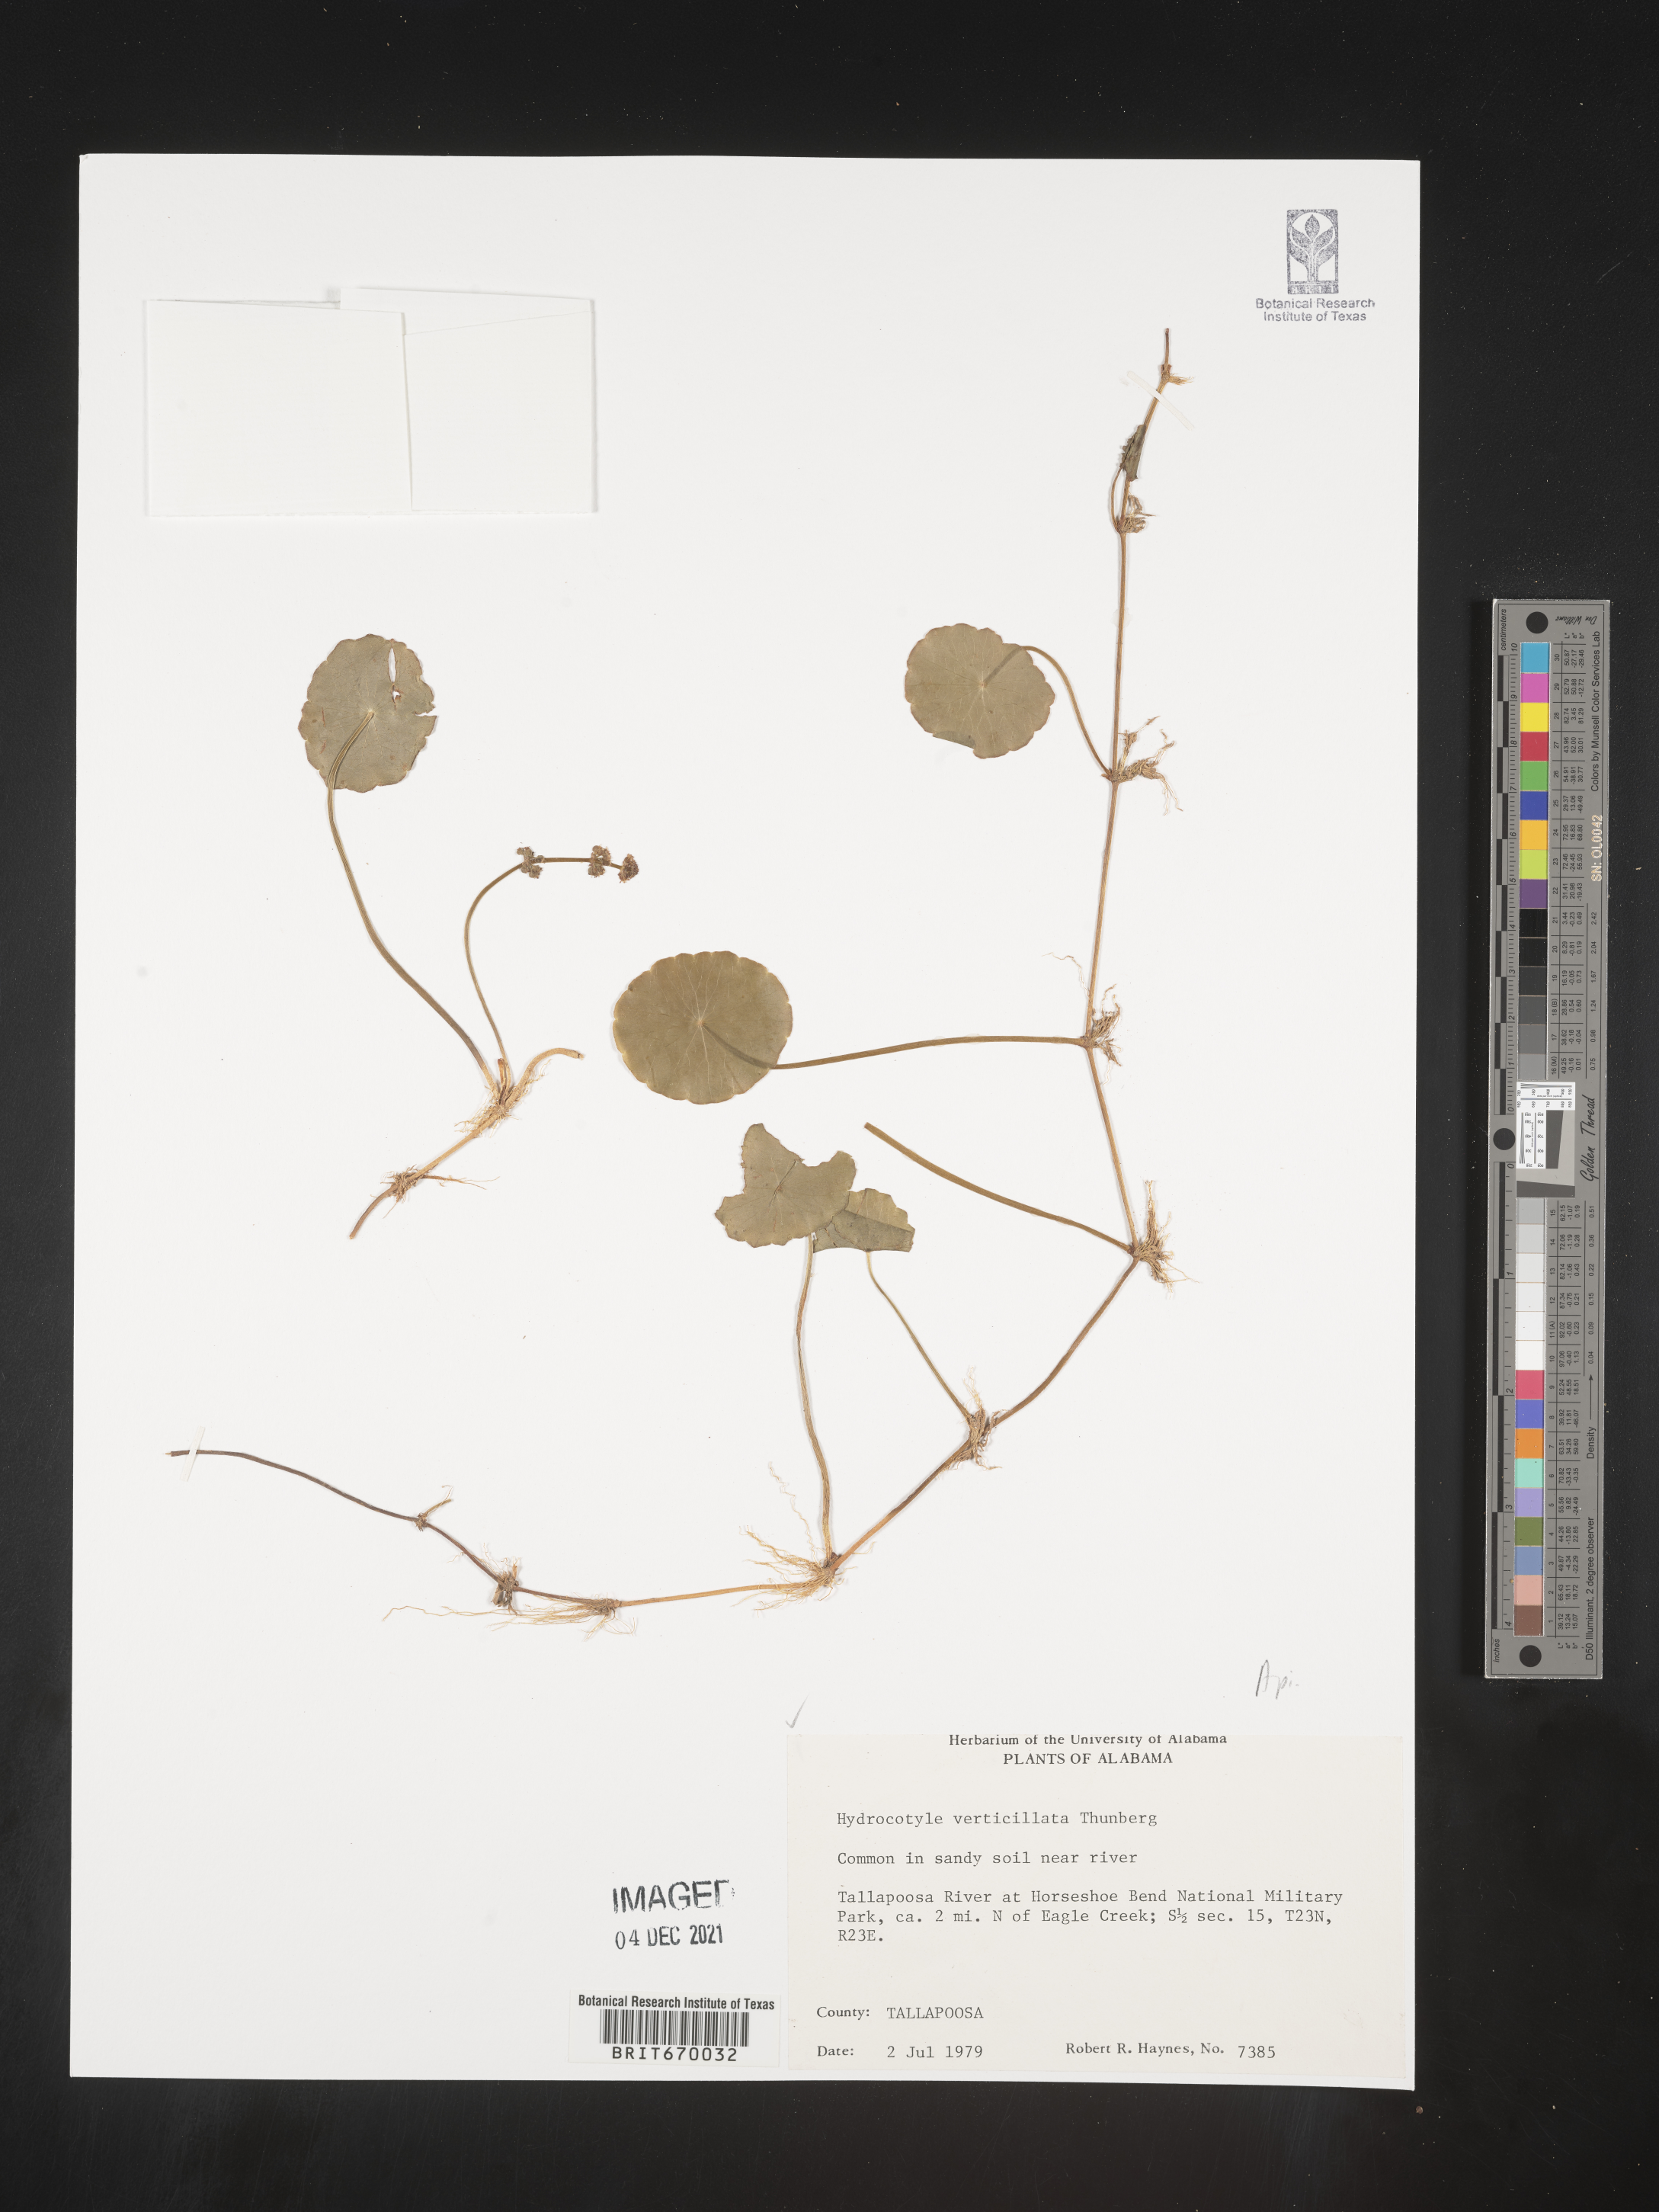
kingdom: Plantae
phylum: Tracheophyta
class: Magnoliopsida
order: Apiales
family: Araliaceae
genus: Hydrocotyle
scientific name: Hydrocotyle verticillata
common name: Whorled marshpennywort
